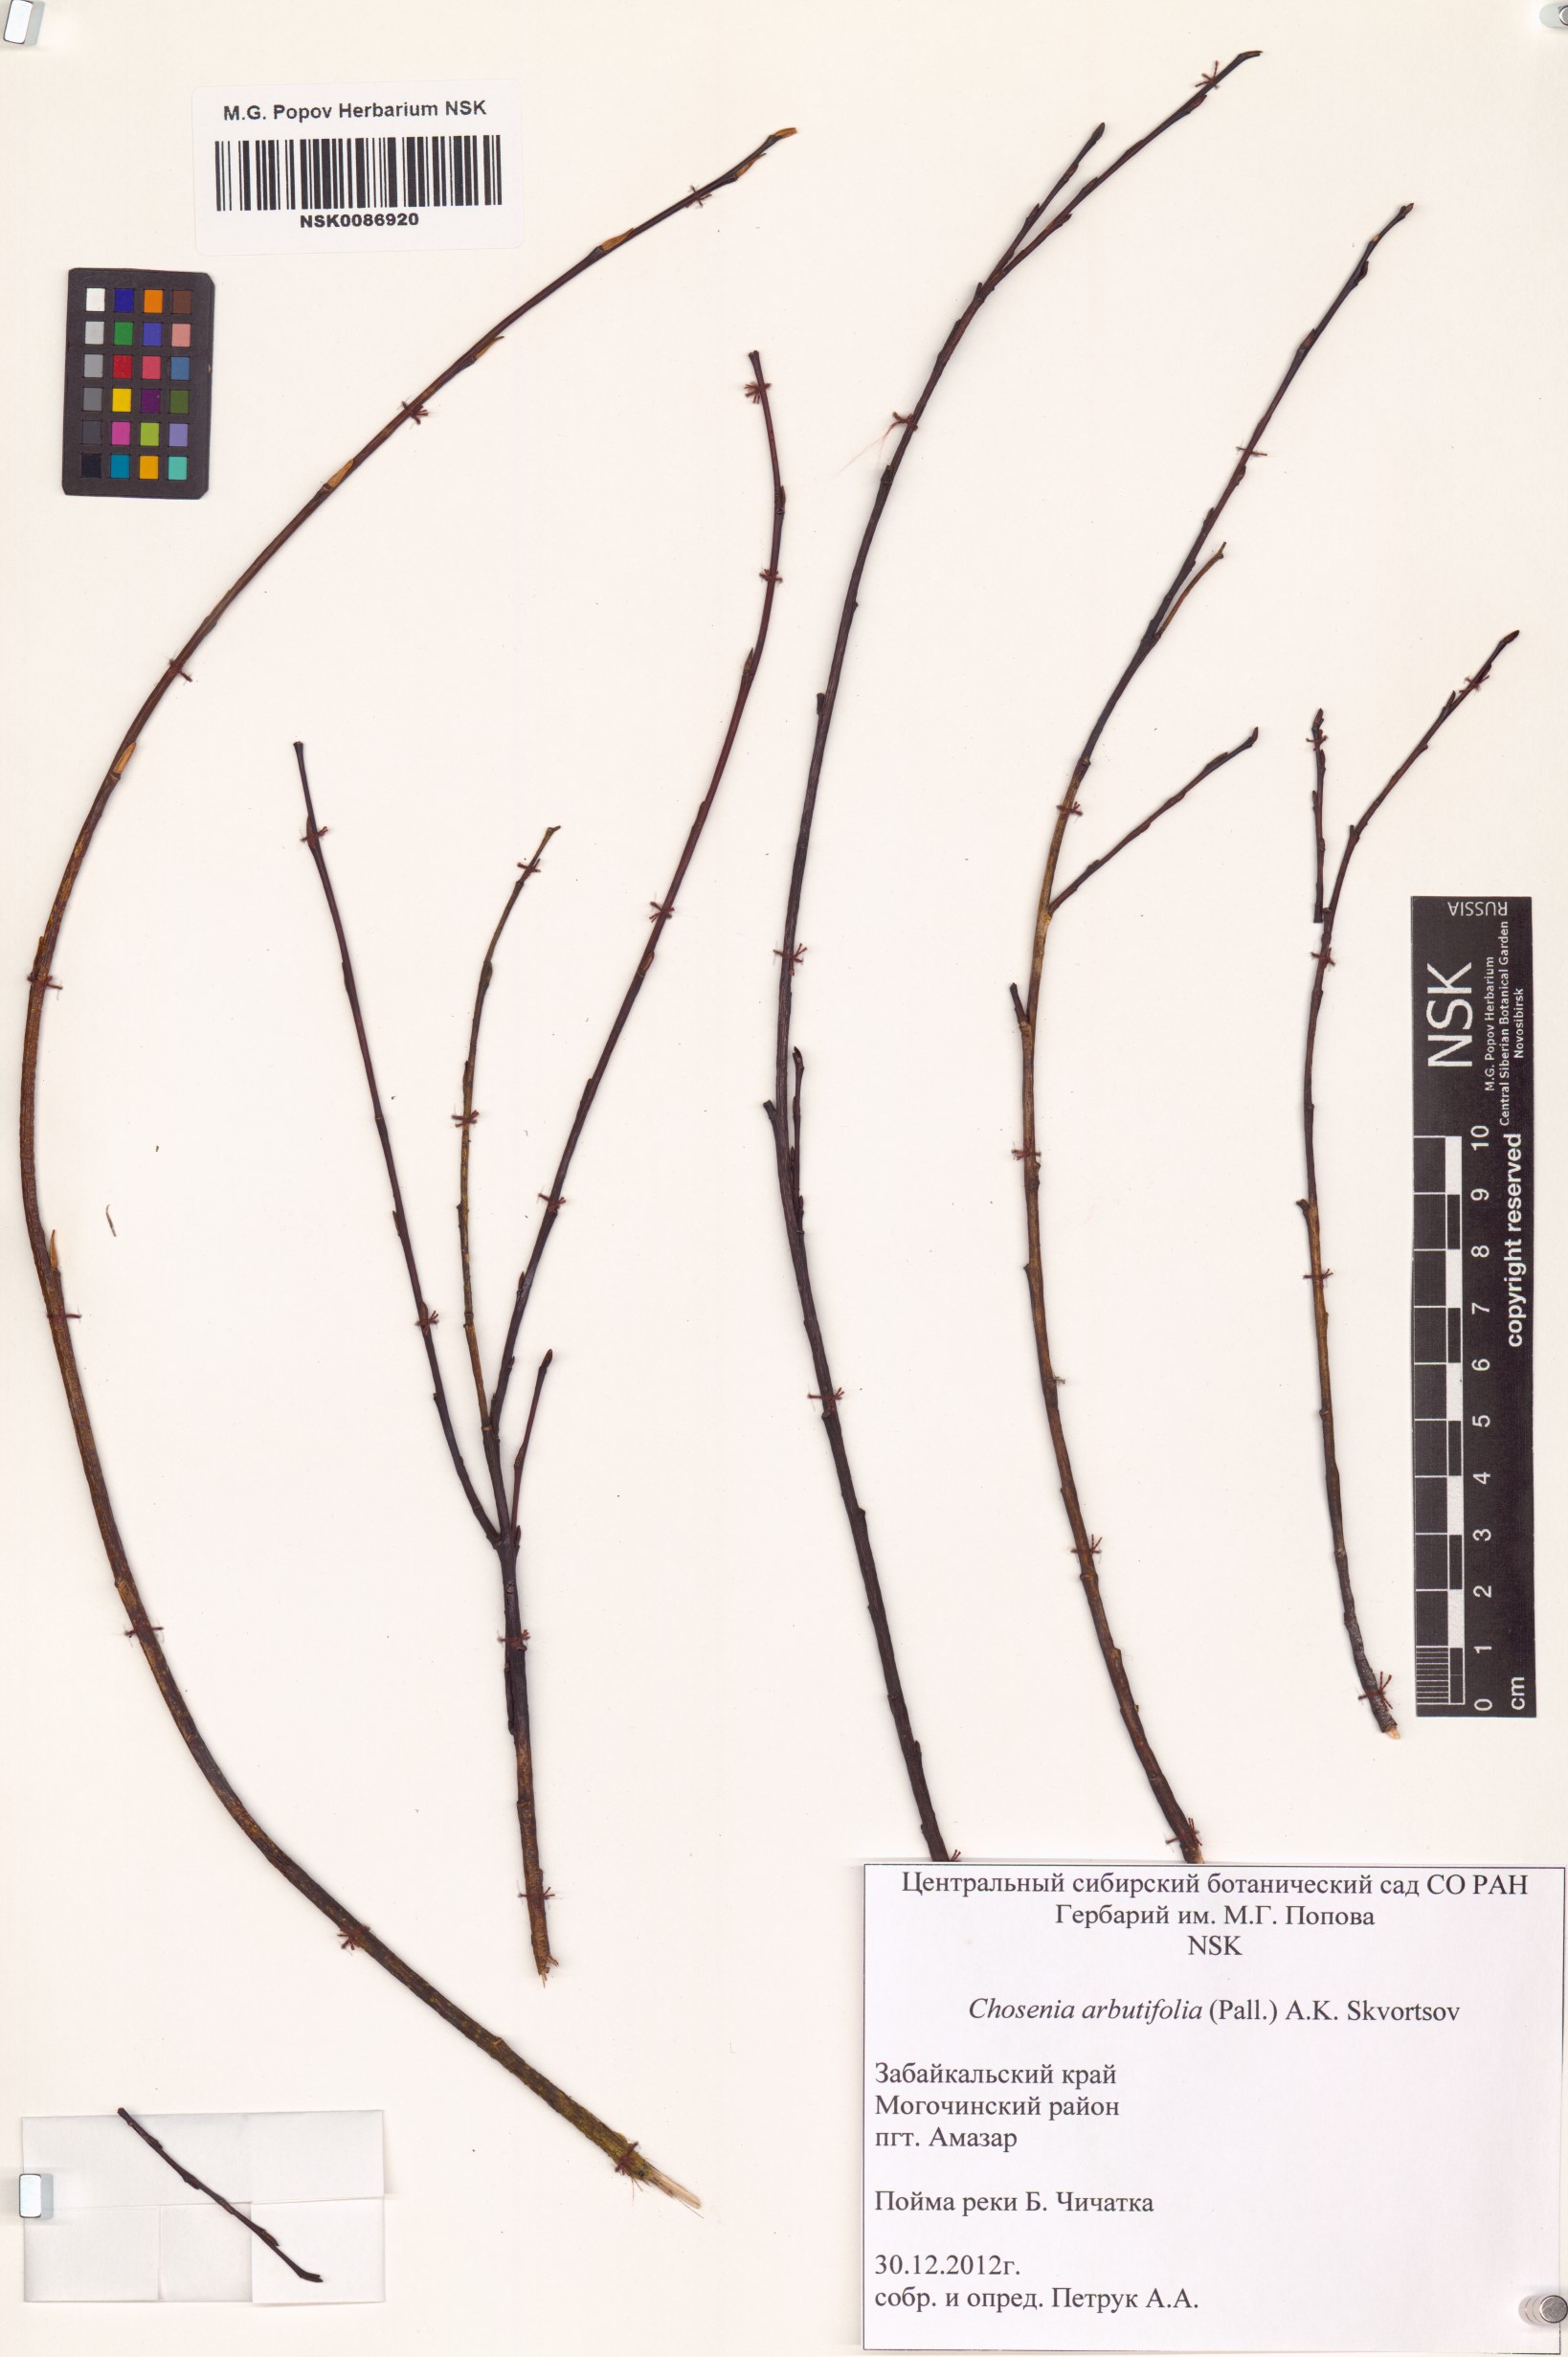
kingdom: Plantae
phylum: Tracheophyta
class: Magnoliopsida
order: Malpighiales
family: Salicaceae
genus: Chosenia
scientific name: Chosenia arbutifolia
